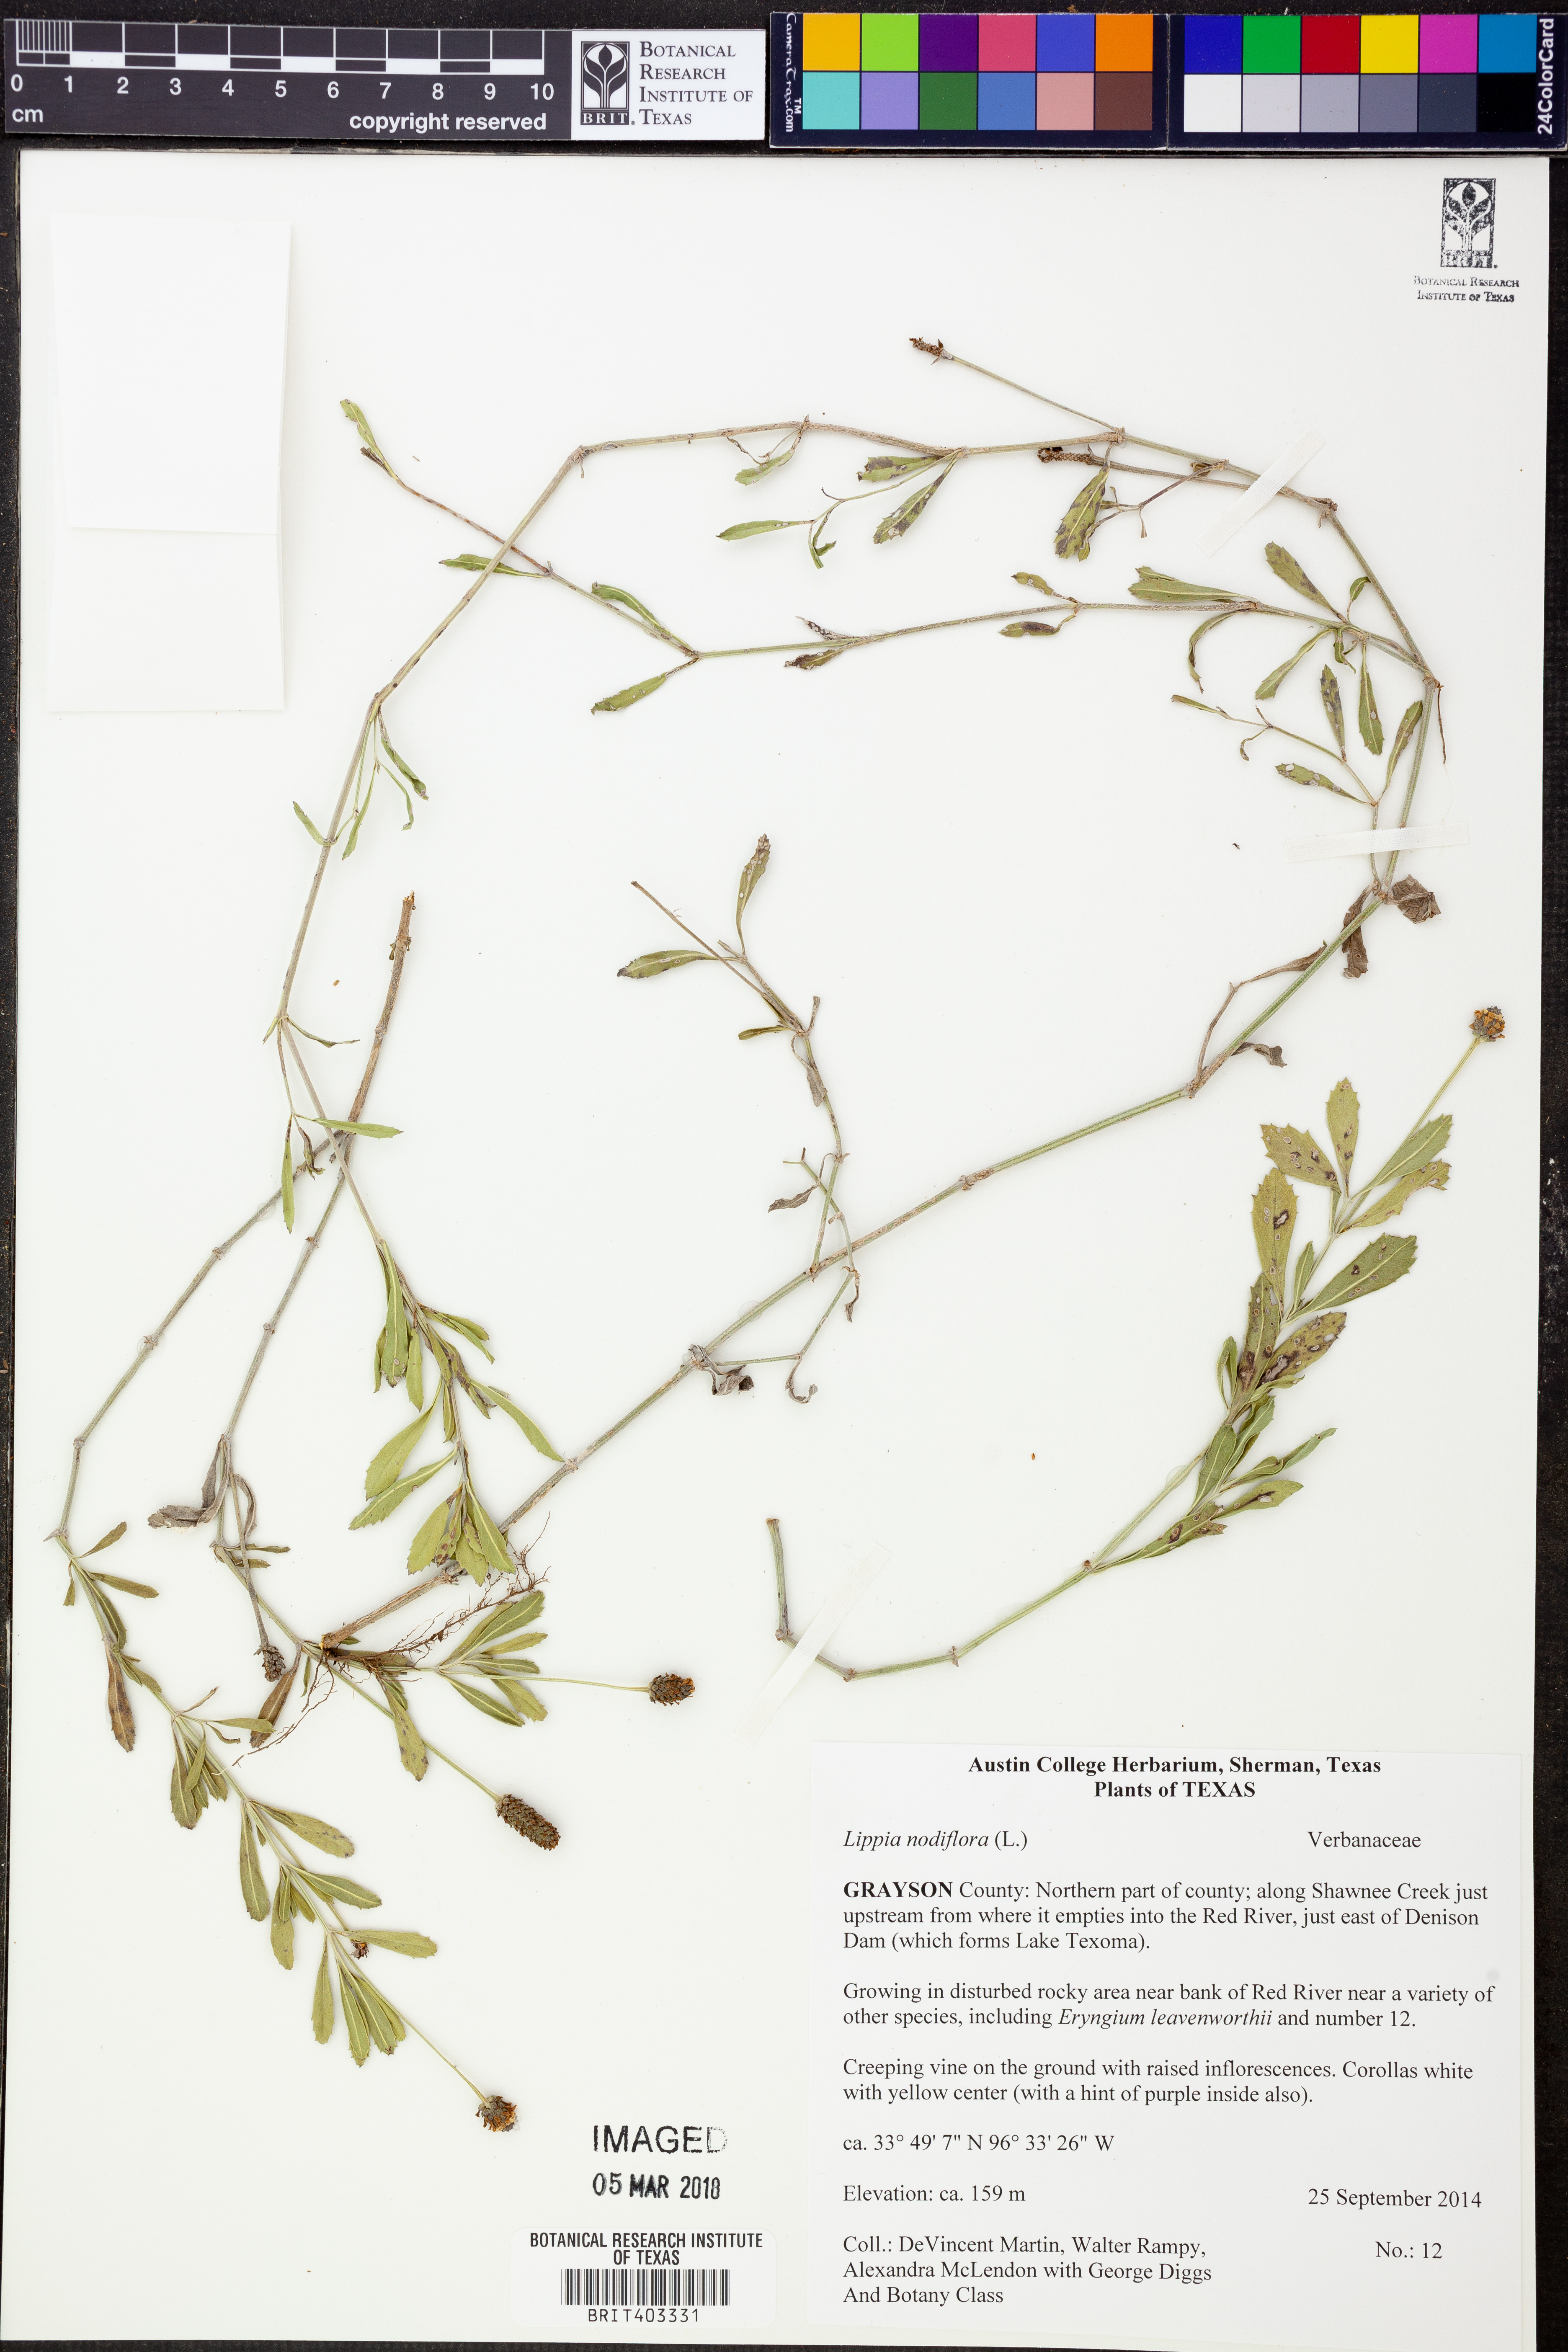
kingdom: Plantae
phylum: Tracheophyta
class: Magnoliopsida
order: Lamiales
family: Verbenaceae
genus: Phyla
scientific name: Phyla nodiflora
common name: Frogfruit
